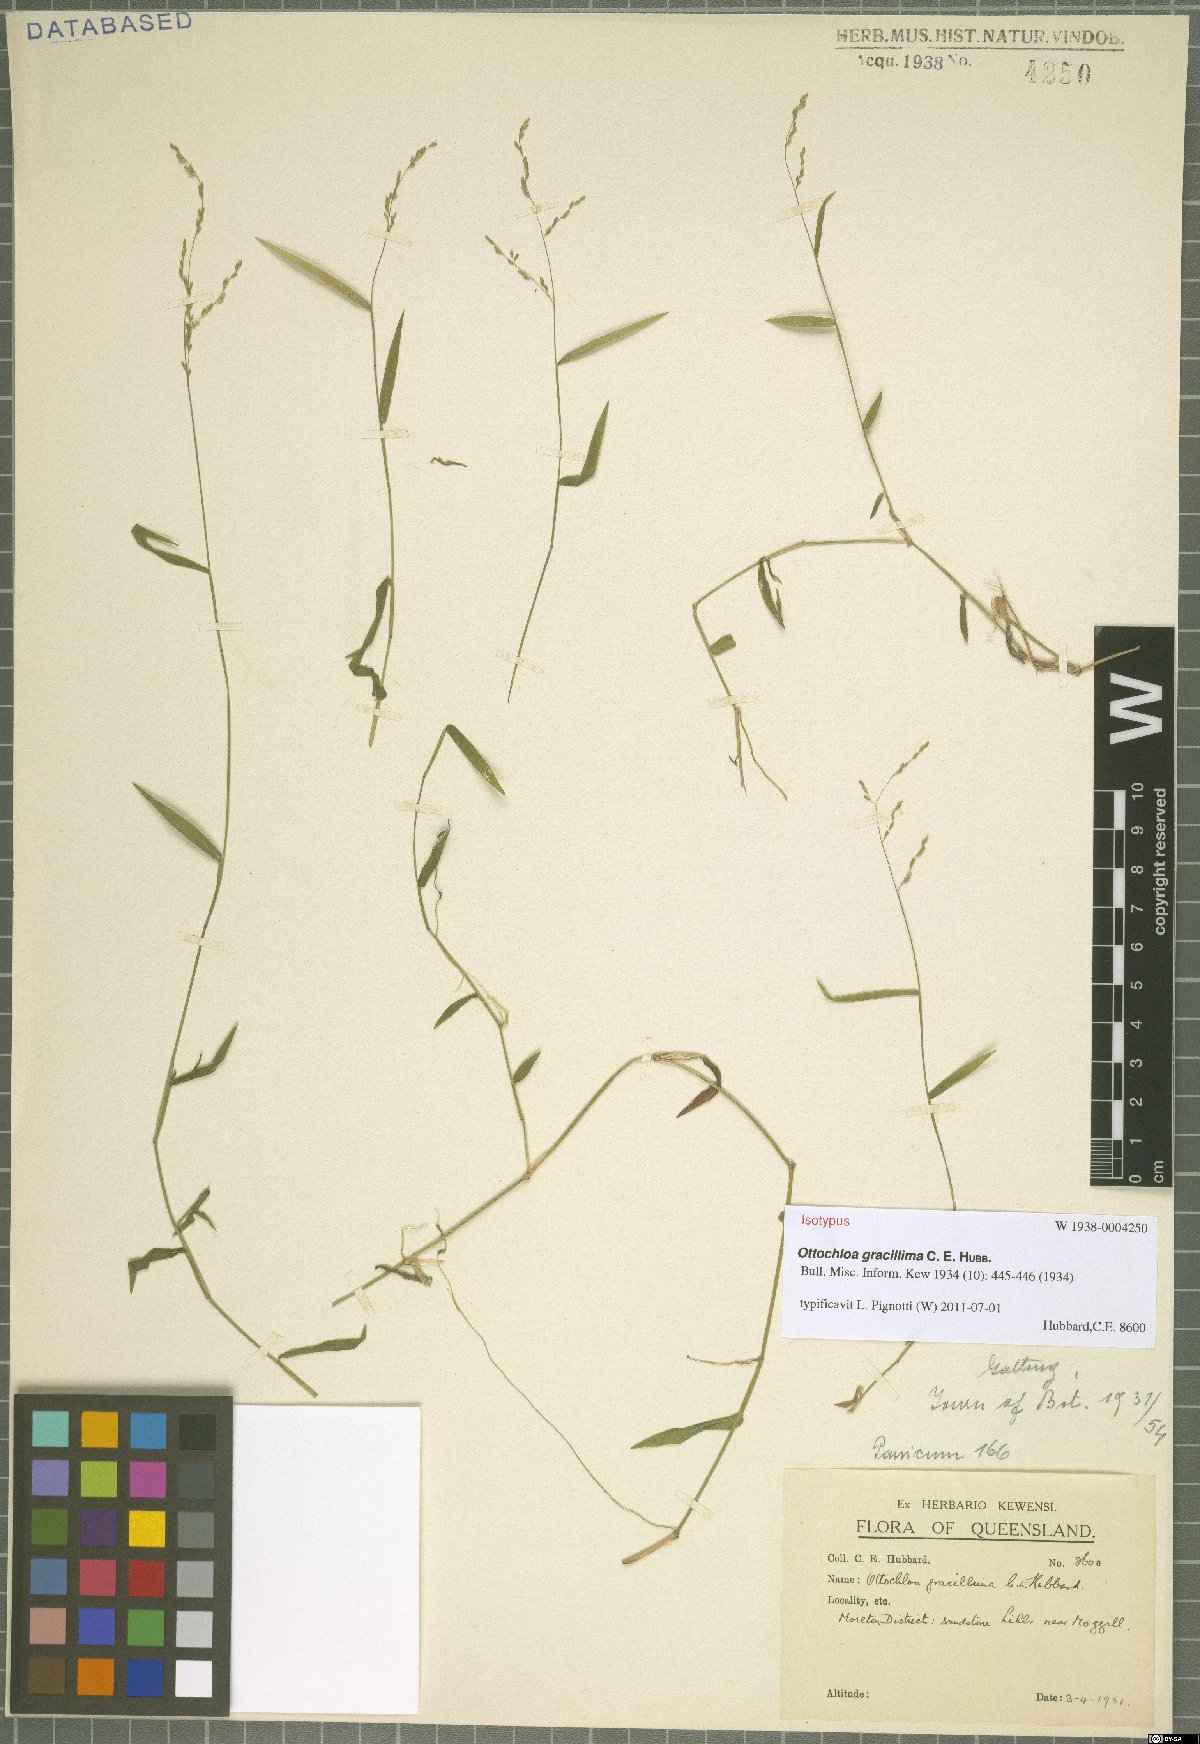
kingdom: Plantae
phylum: Tracheophyta
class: Liliopsida
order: Poales
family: Poaceae
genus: Ottochloa
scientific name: Ottochloa gracillima
